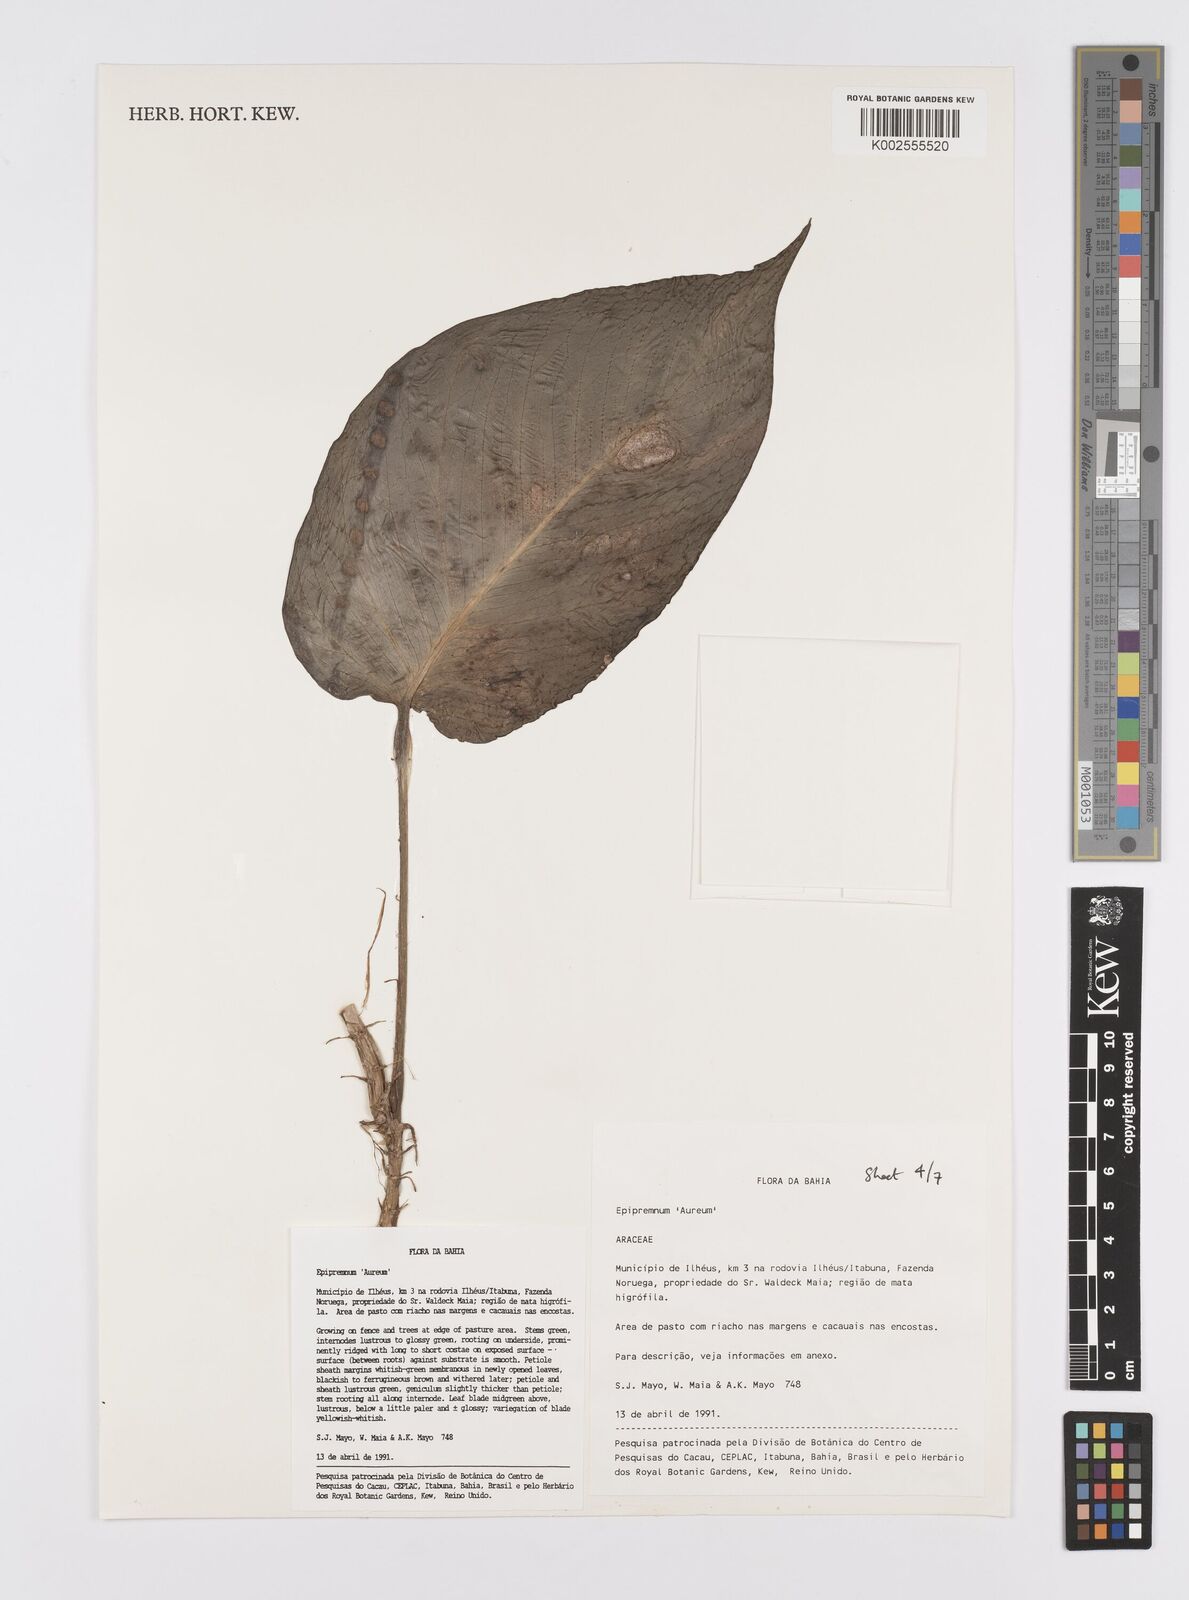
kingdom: Plantae
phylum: Tracheophyta
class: Liliopsida
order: Alismatales
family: Araceae
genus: Epipremnum
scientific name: Epipremnum aureum
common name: Golden hunter's-robe
